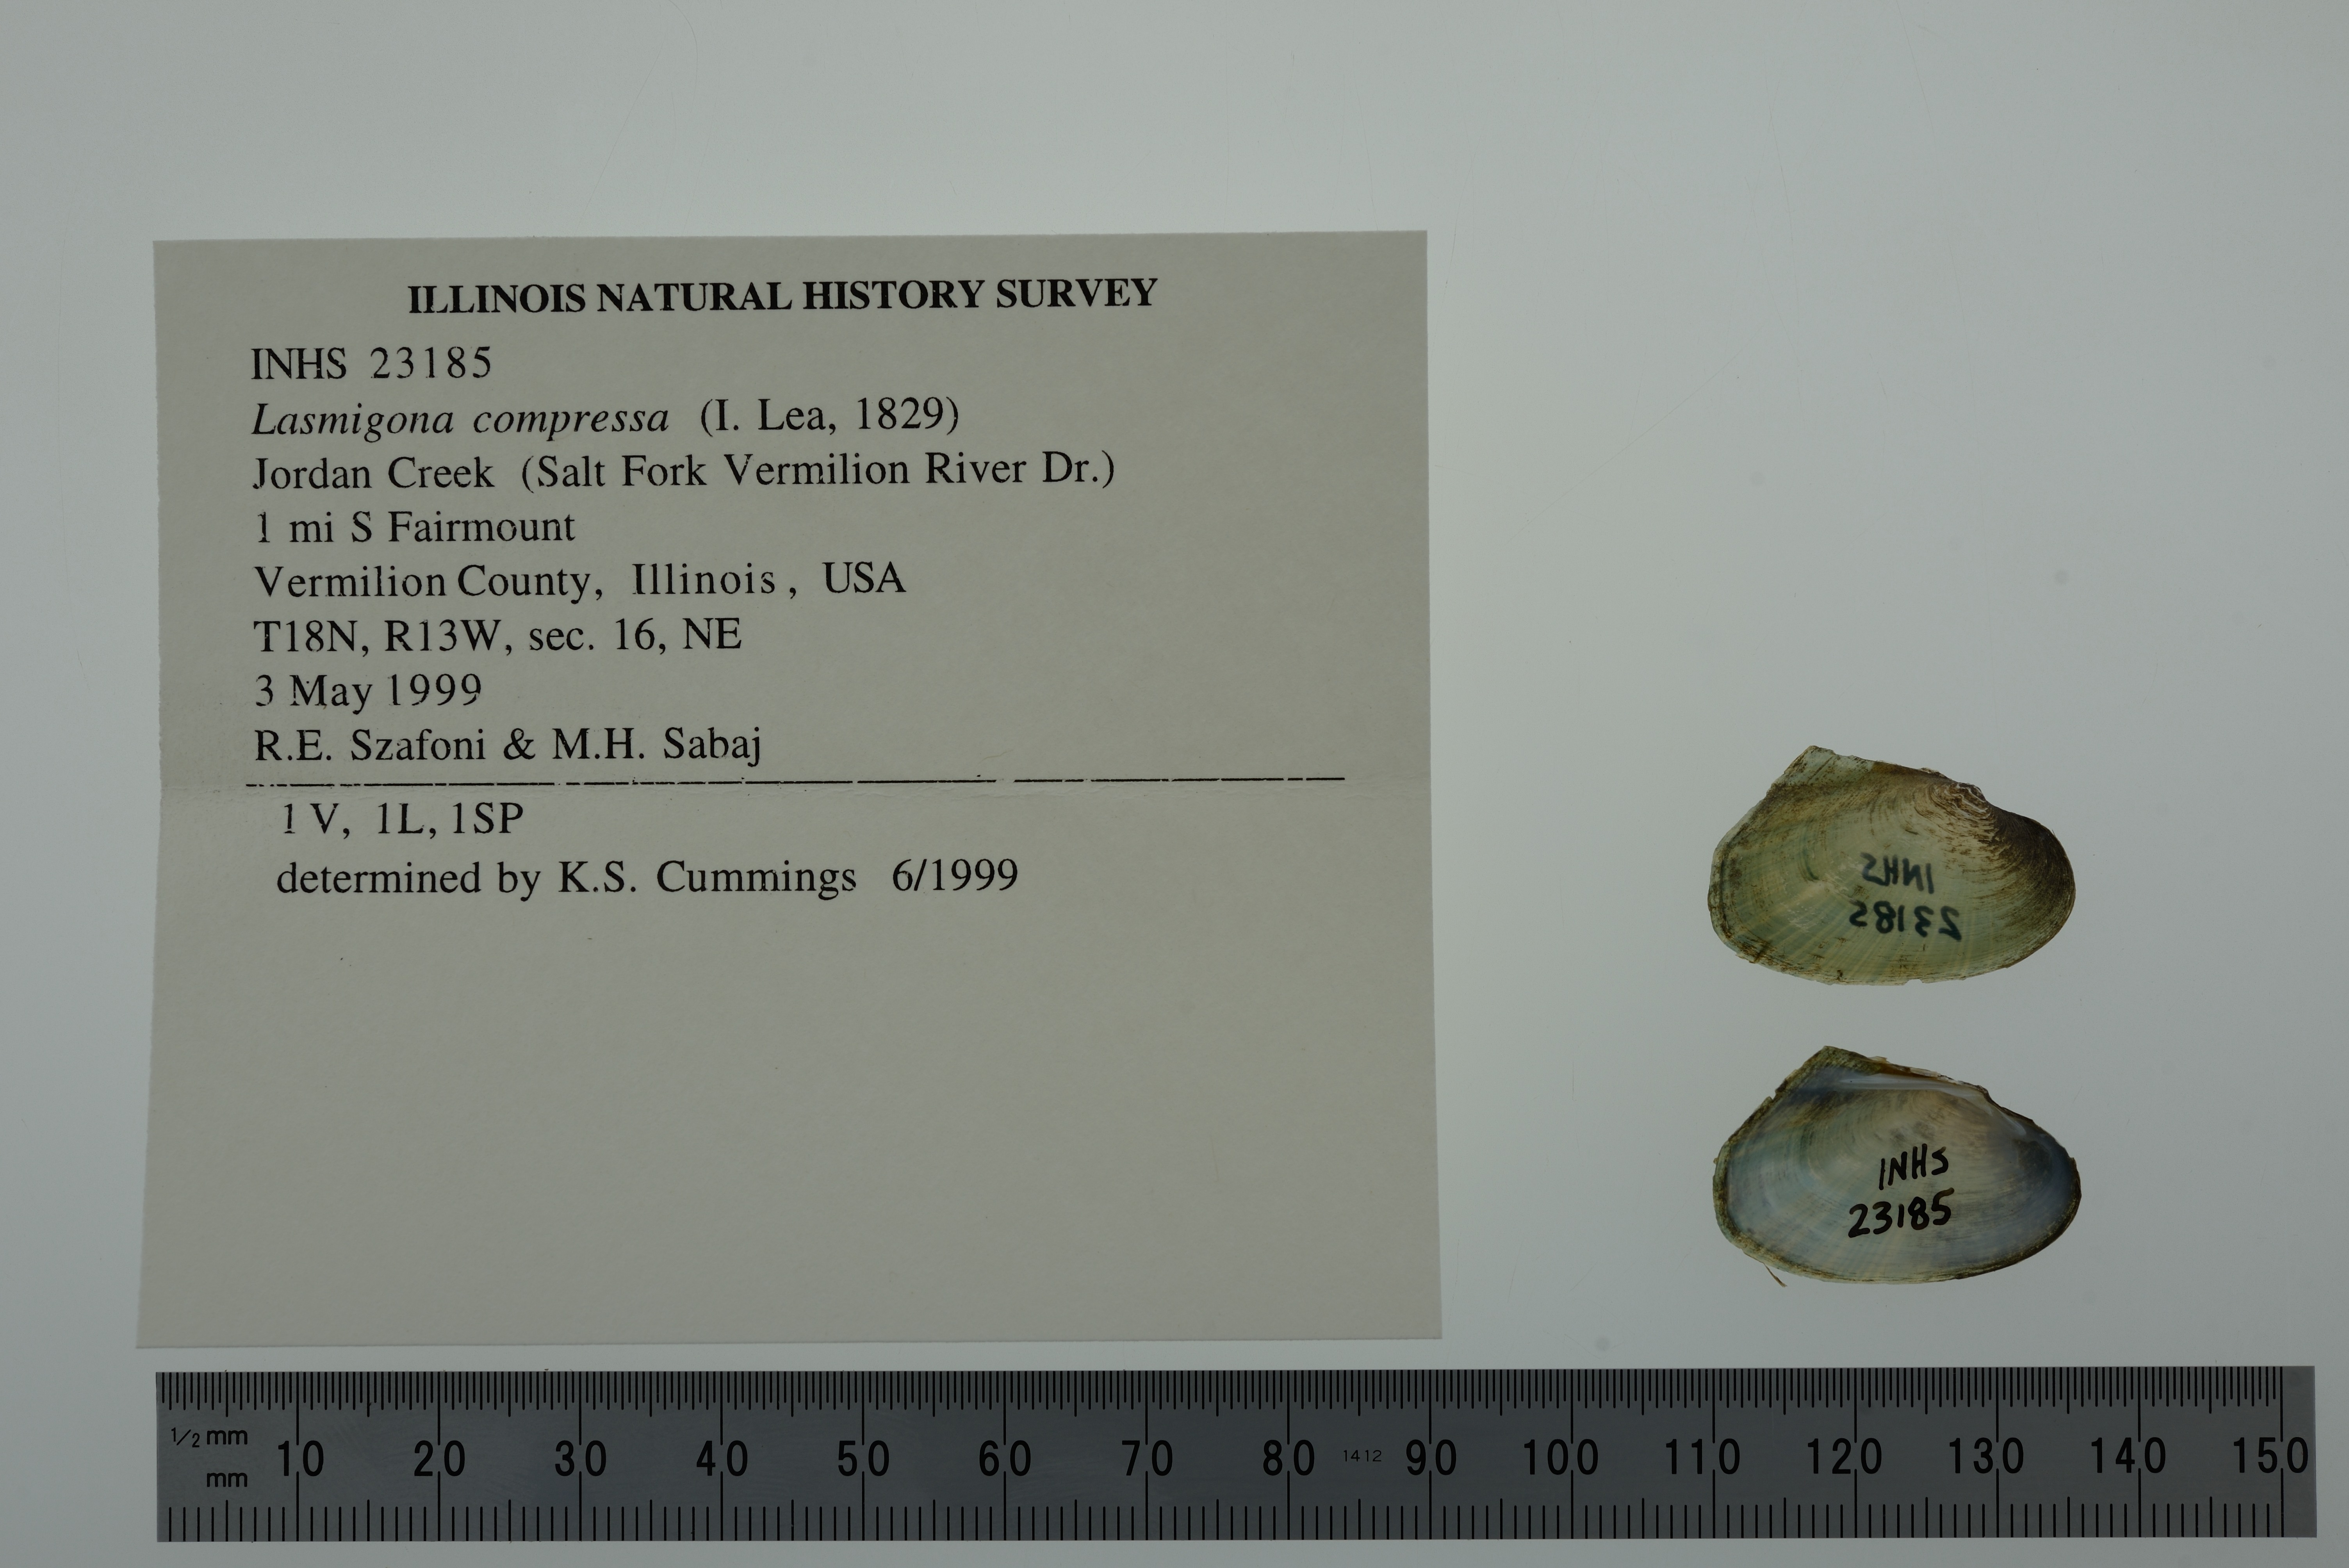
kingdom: Animalia
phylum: Mollusca
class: Bivalvia
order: Unionida
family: Unionidae
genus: Lasmigona
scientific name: Lasmigona compressa
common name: Creek heelsplitter
